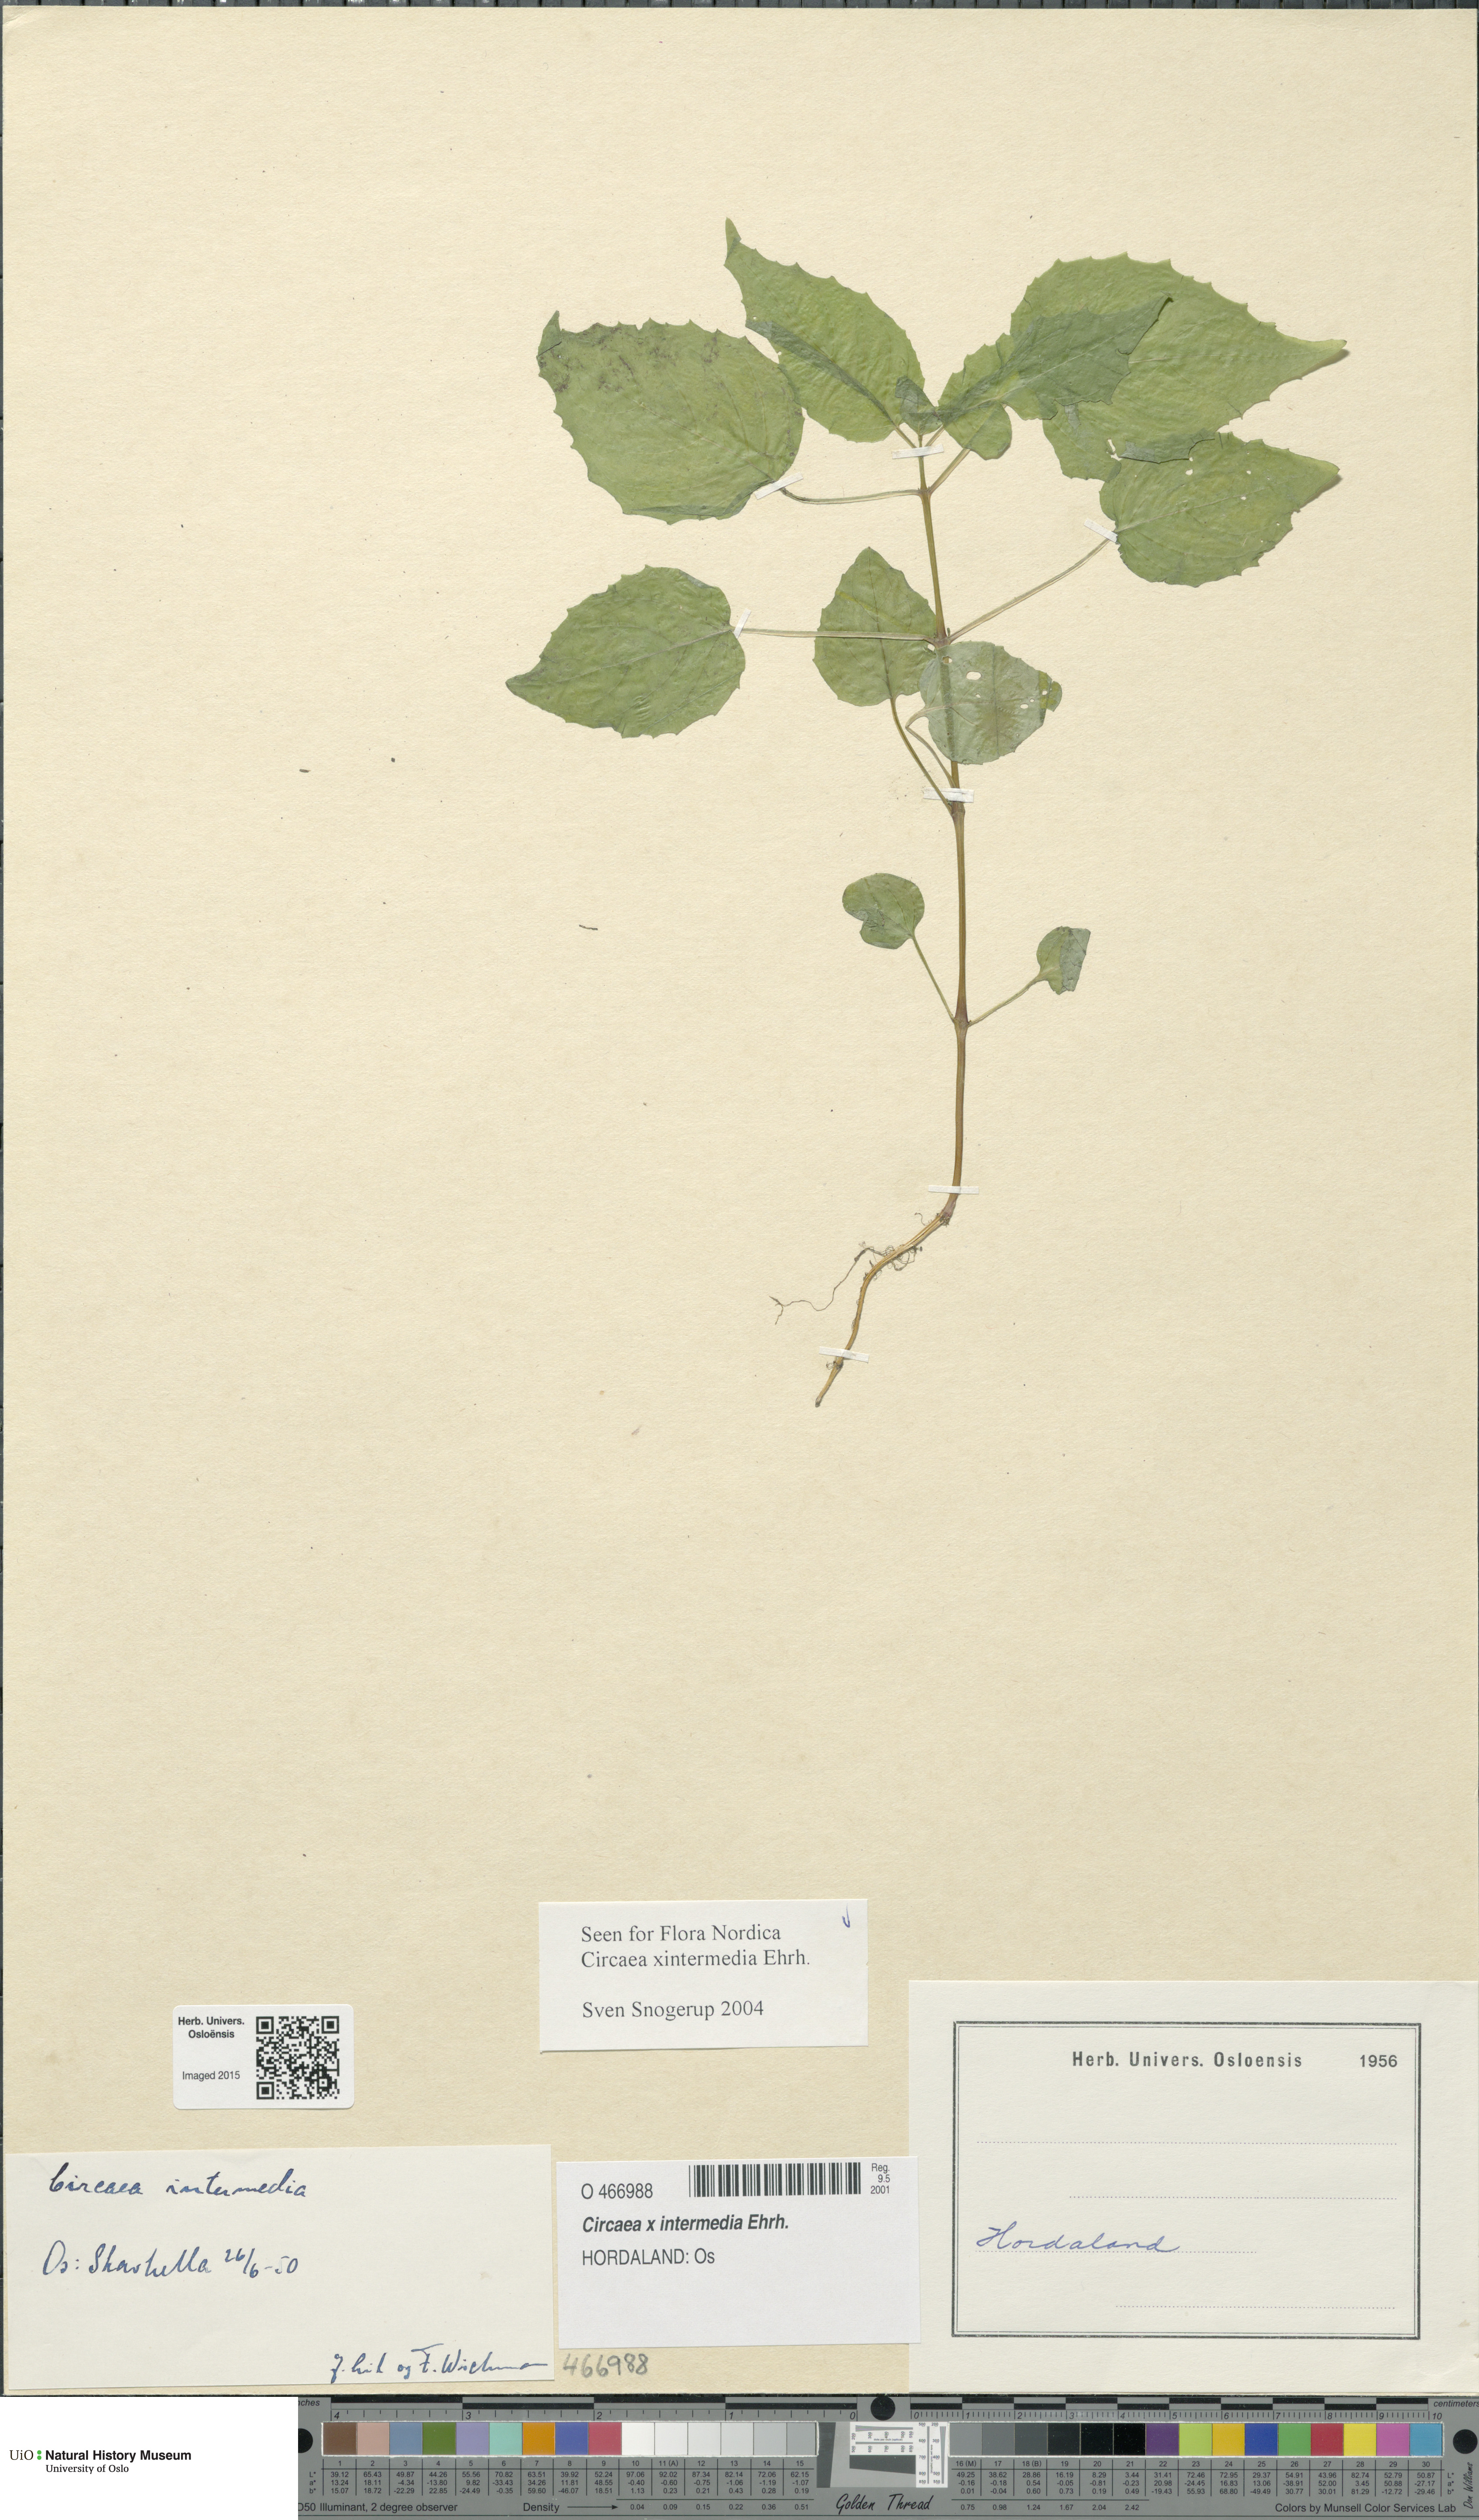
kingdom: Plantae
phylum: Tracheophyta
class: Magnoliopsida
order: Myrtales
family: Onagraceae
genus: Circaea
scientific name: Circaea intermedia
